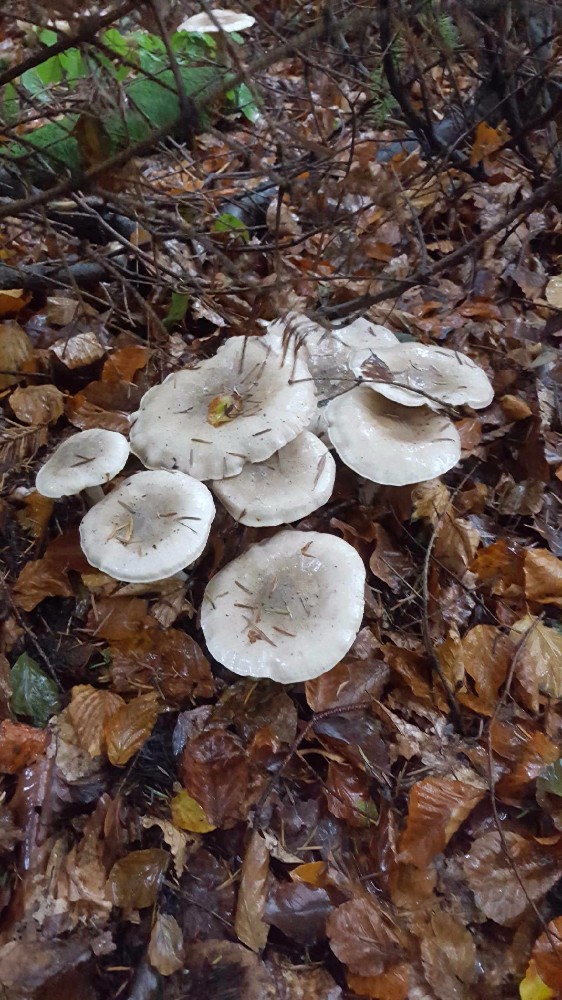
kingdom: Fungi
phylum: Basidiomycota
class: Agaricomycetes
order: Agaricales
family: Tricholomataceae
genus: Clitocybe
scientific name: Clitocybe nebularis
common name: tåge-tragthat
